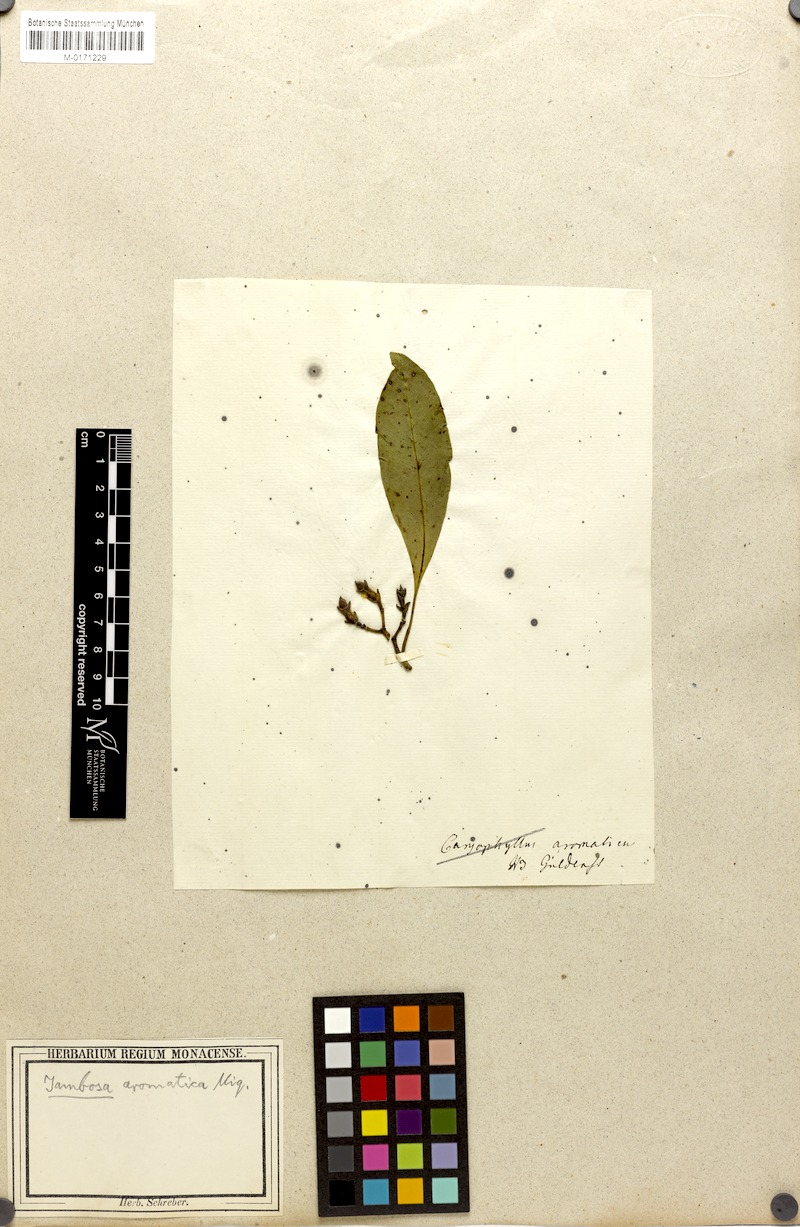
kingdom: Plantae
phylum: Tracheophyta
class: Magnoliopsida
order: Myrtales
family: Myrtaceae
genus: Syzygium
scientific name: Syzygium aromaticum
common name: Clove
